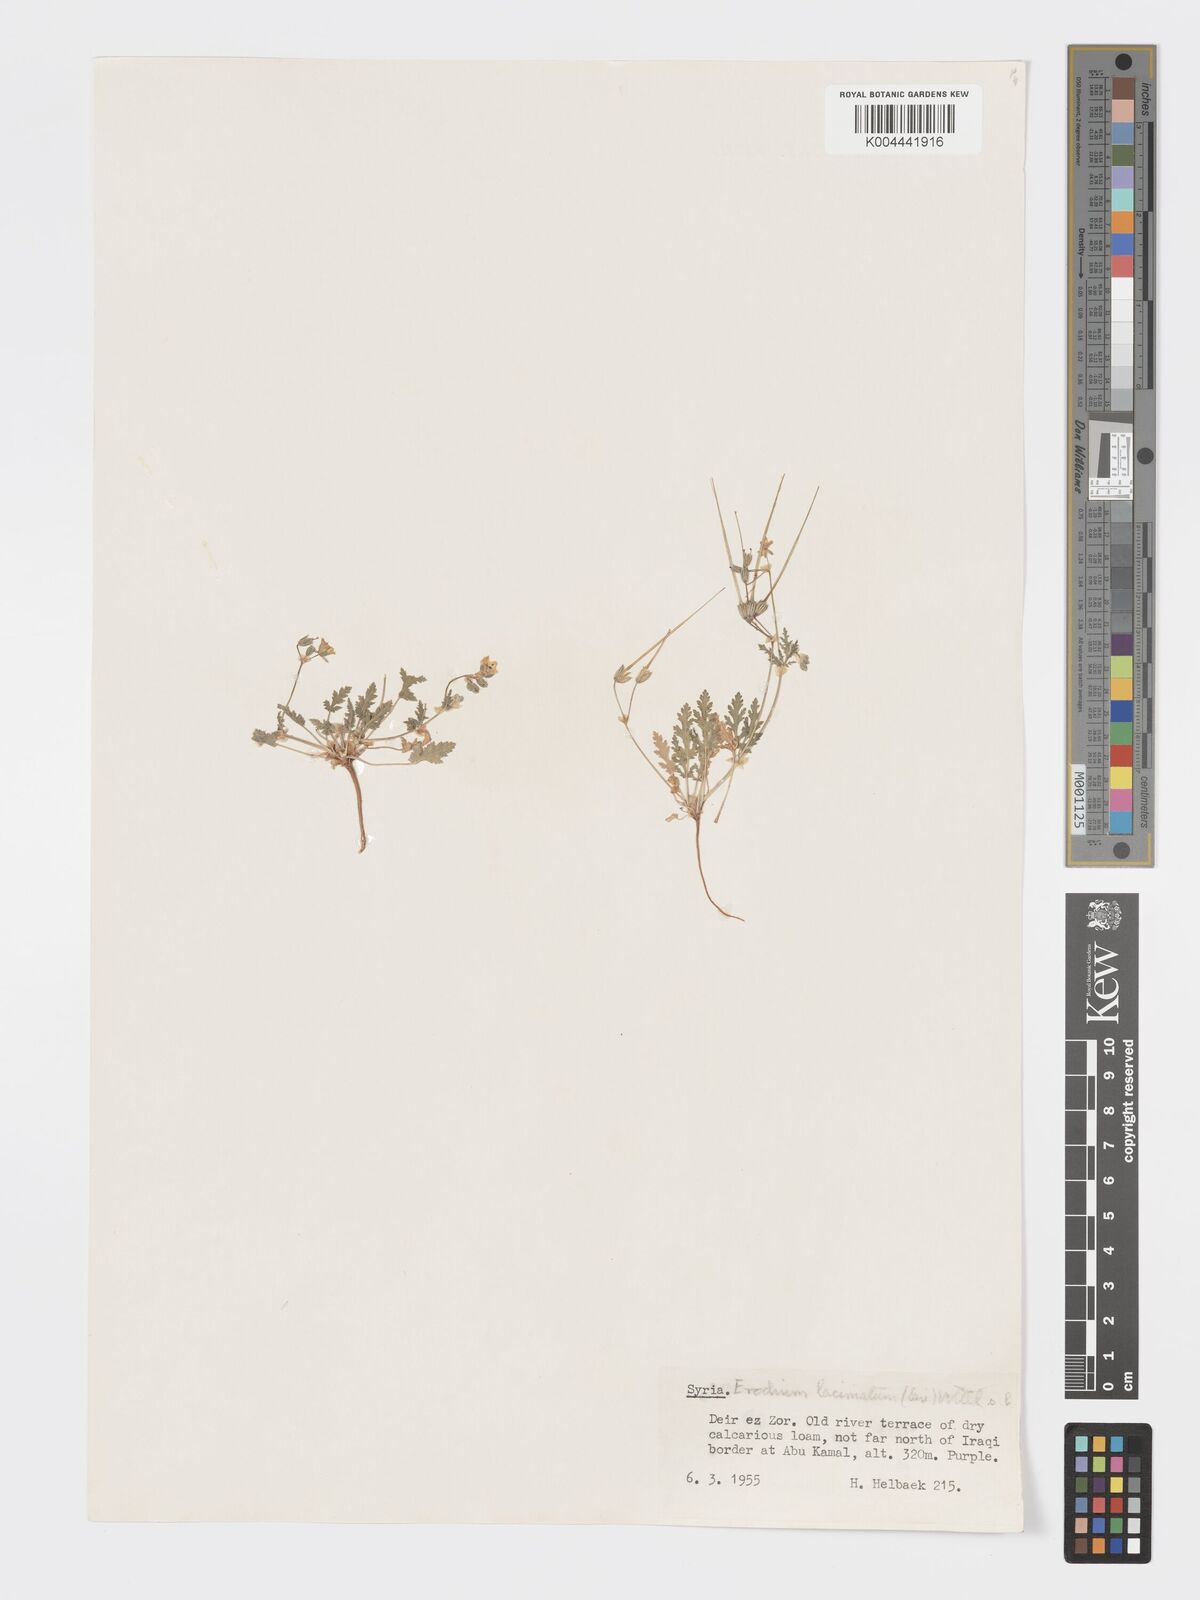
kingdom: Plantae
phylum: Tracheophyta
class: Magnoliopsida
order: Geraniales
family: Geraniaceae
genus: Erodium
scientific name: Erodium laciniatum
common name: Cutleaf stork's bill
